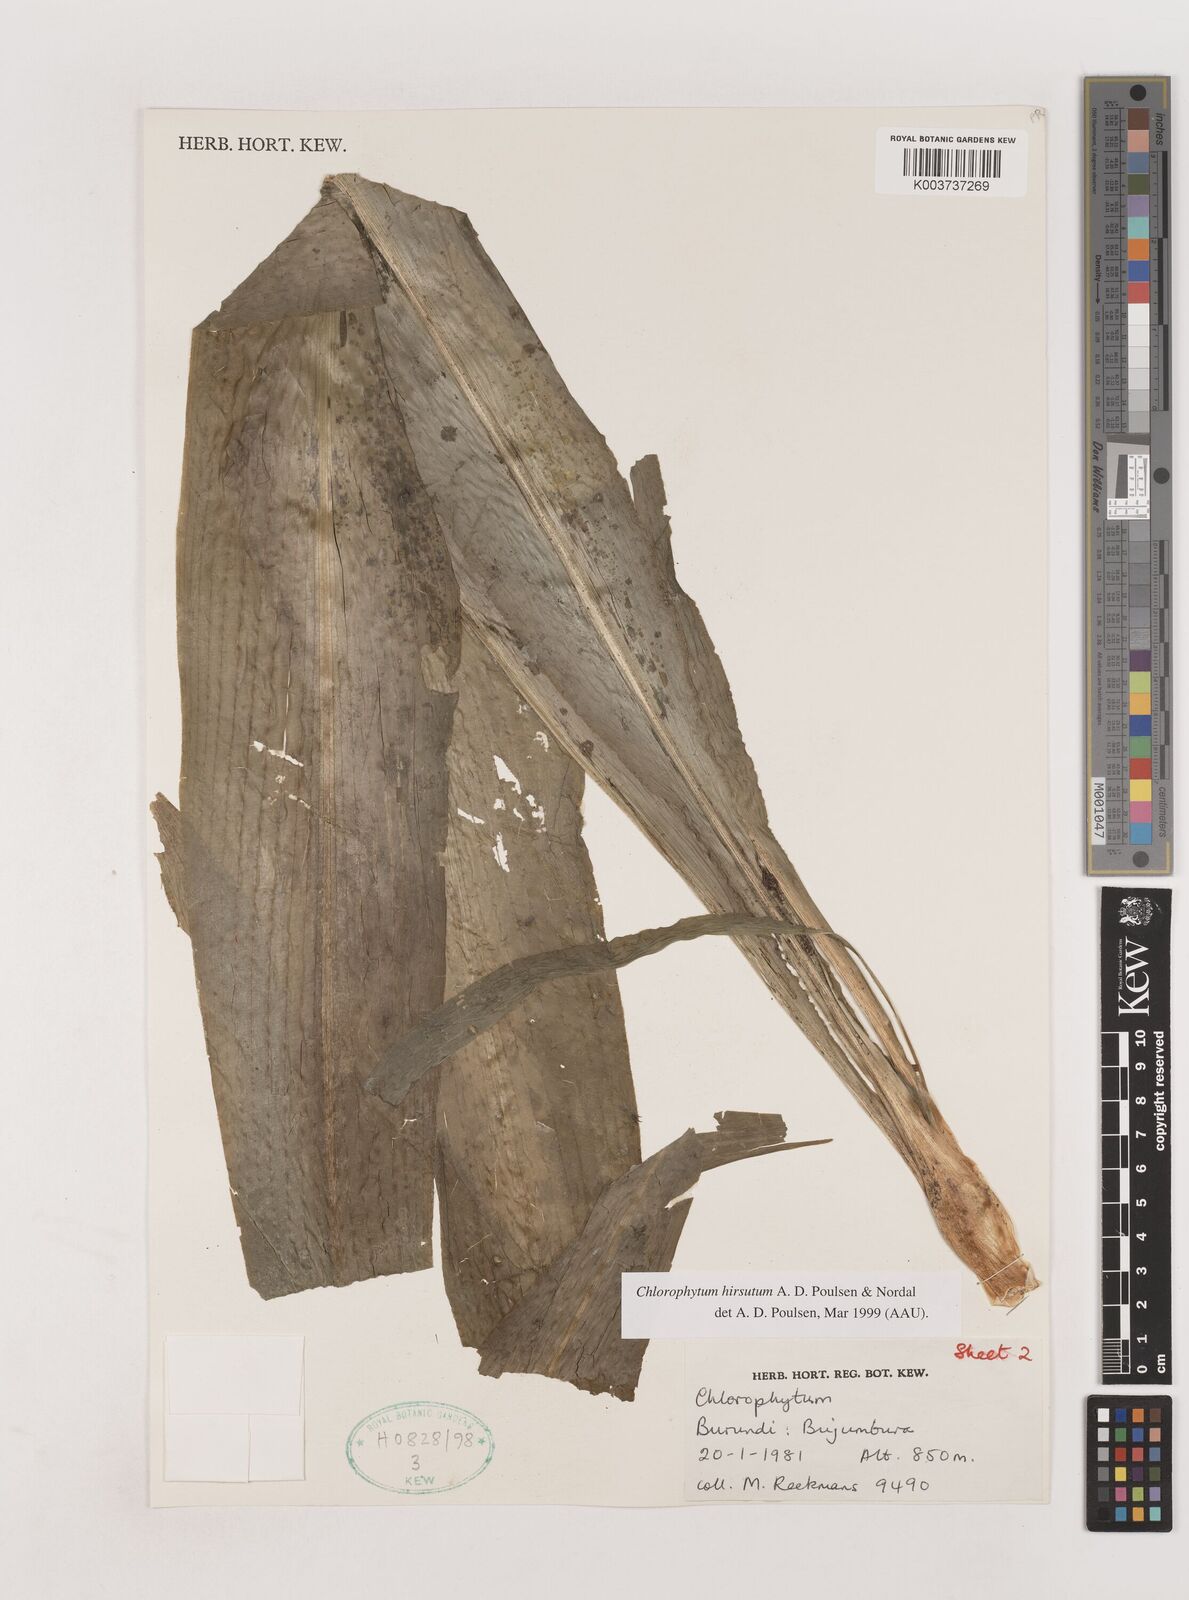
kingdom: Plantae
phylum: Tracheophyta
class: Liliopsida
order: Asparagales
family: Asparagaceae
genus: Chlorophytum
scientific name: Chlorophytum hirsutum
